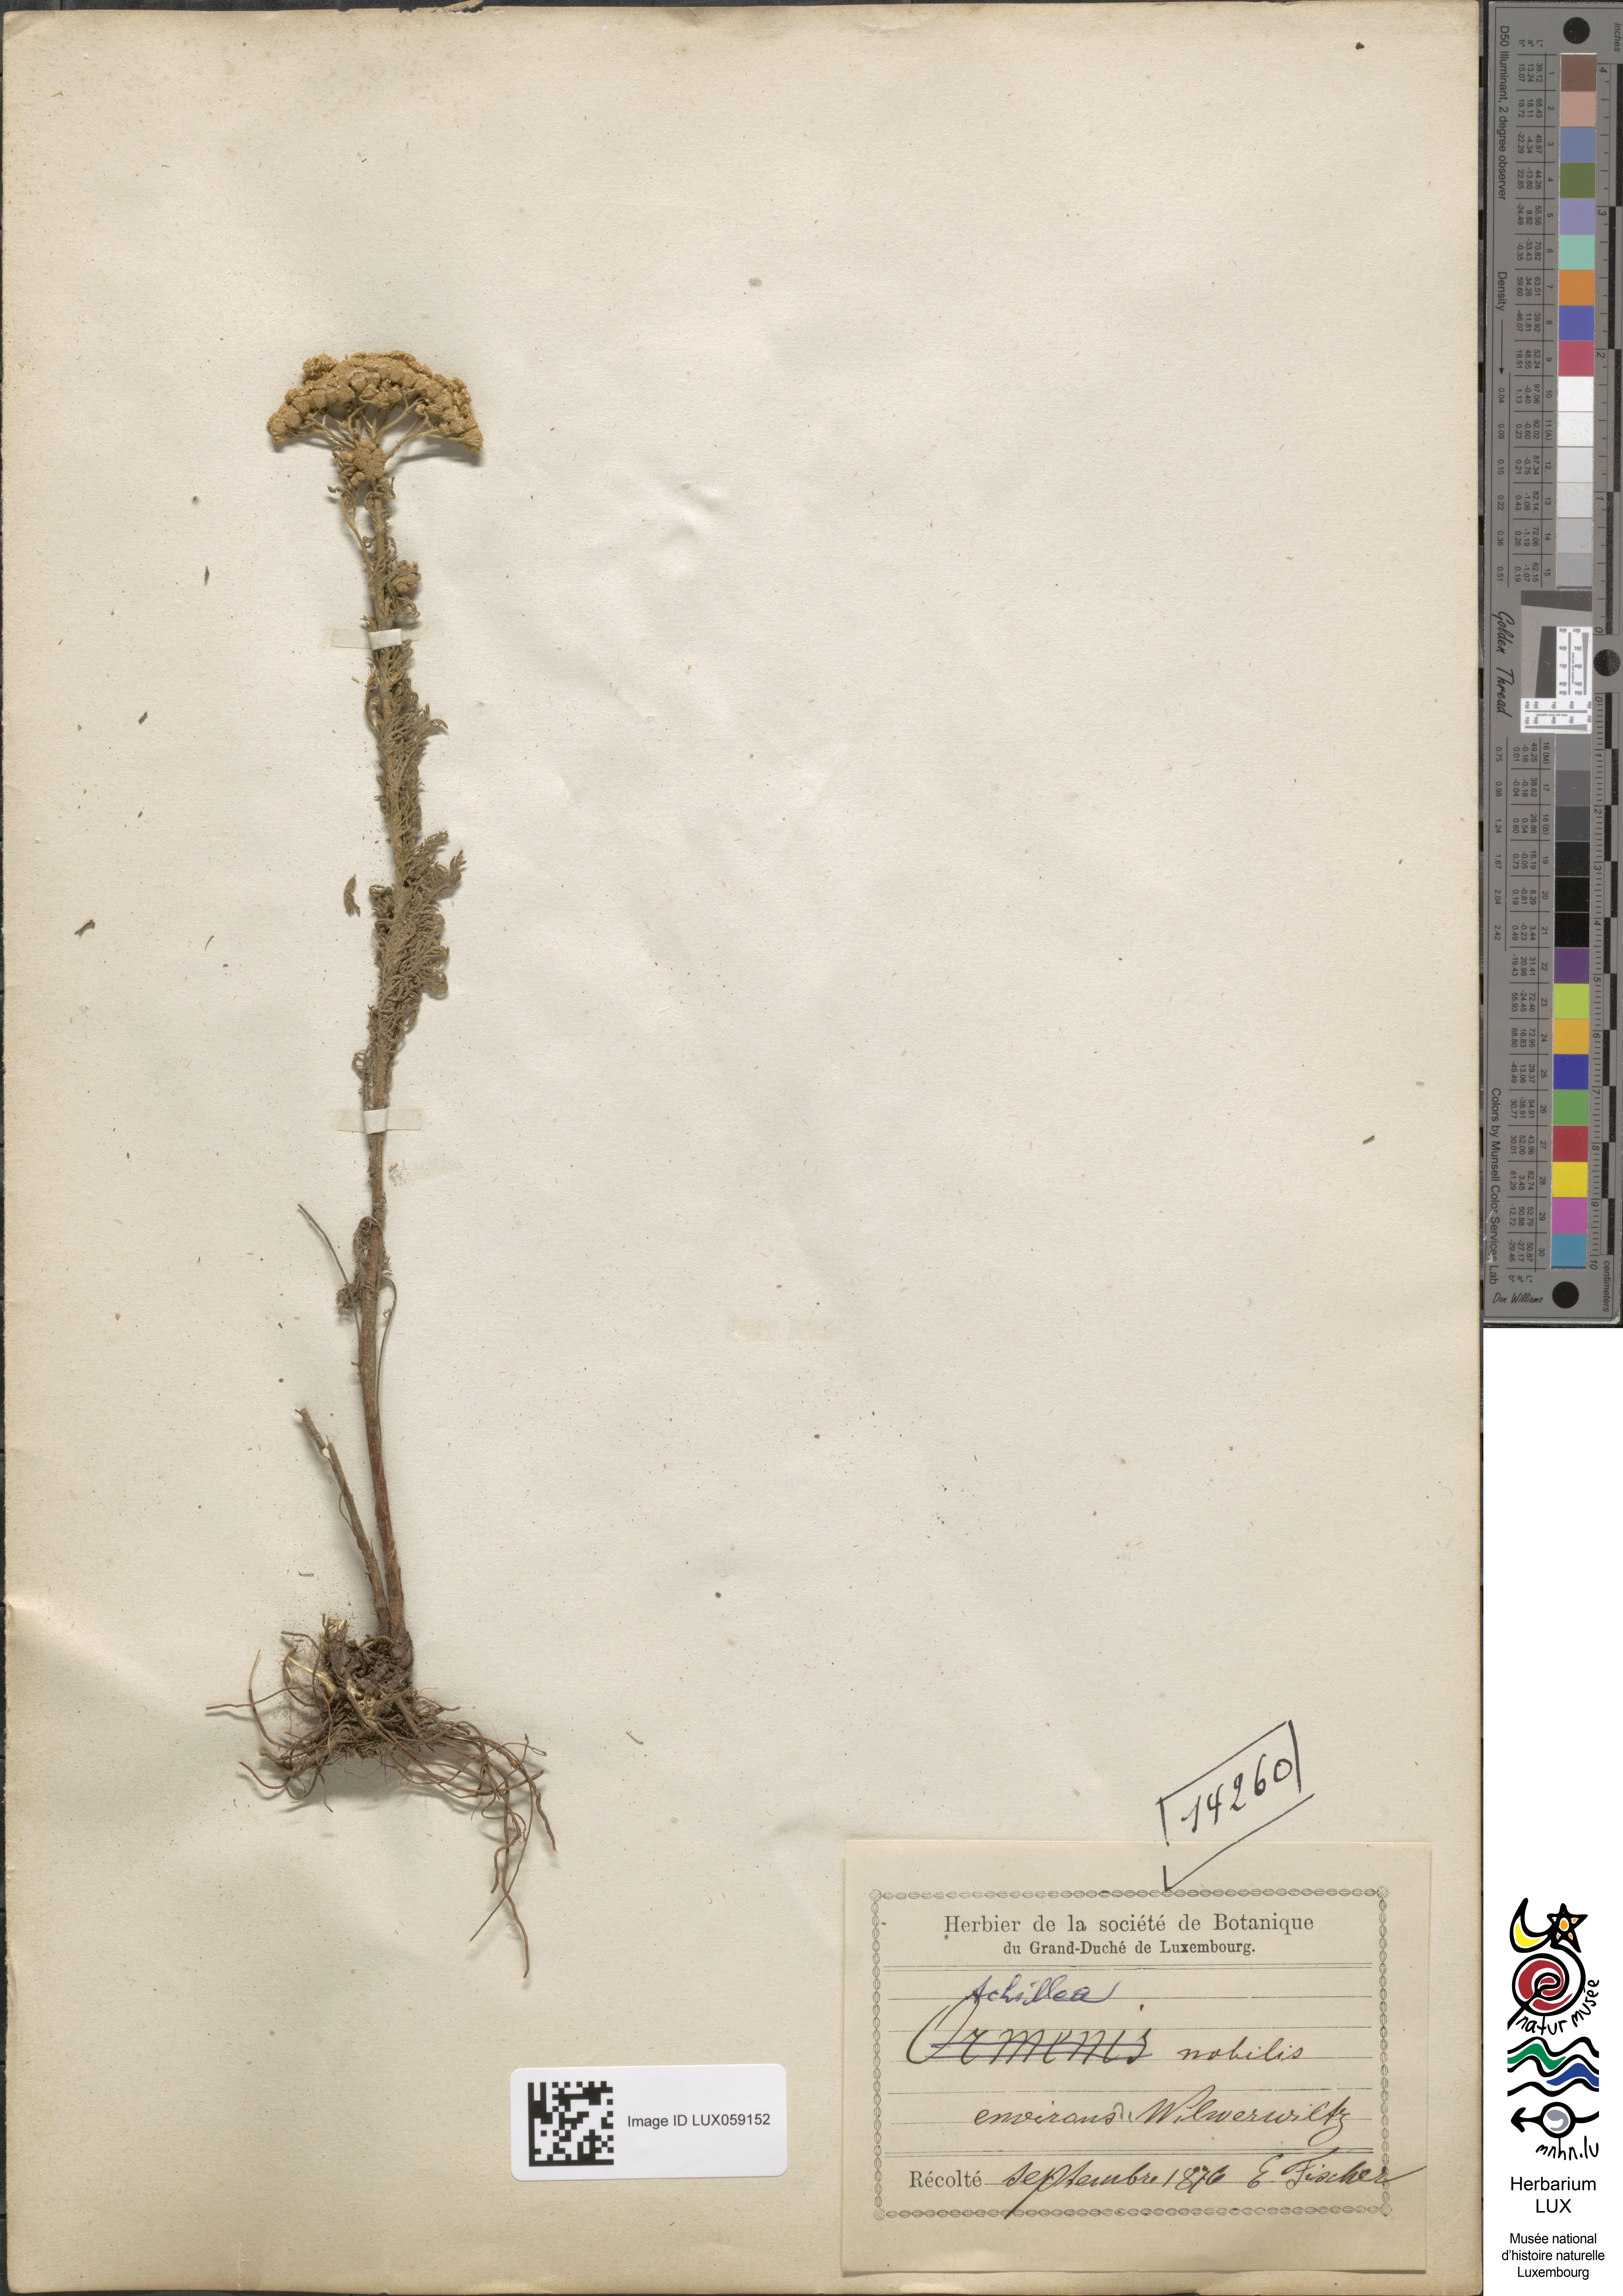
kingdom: Plantae
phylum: Tracheophyta
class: Magnoliopsida
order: Asterales
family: Asteraceae
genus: Achillea
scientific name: Achillea nobilis
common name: Noble yarrow
